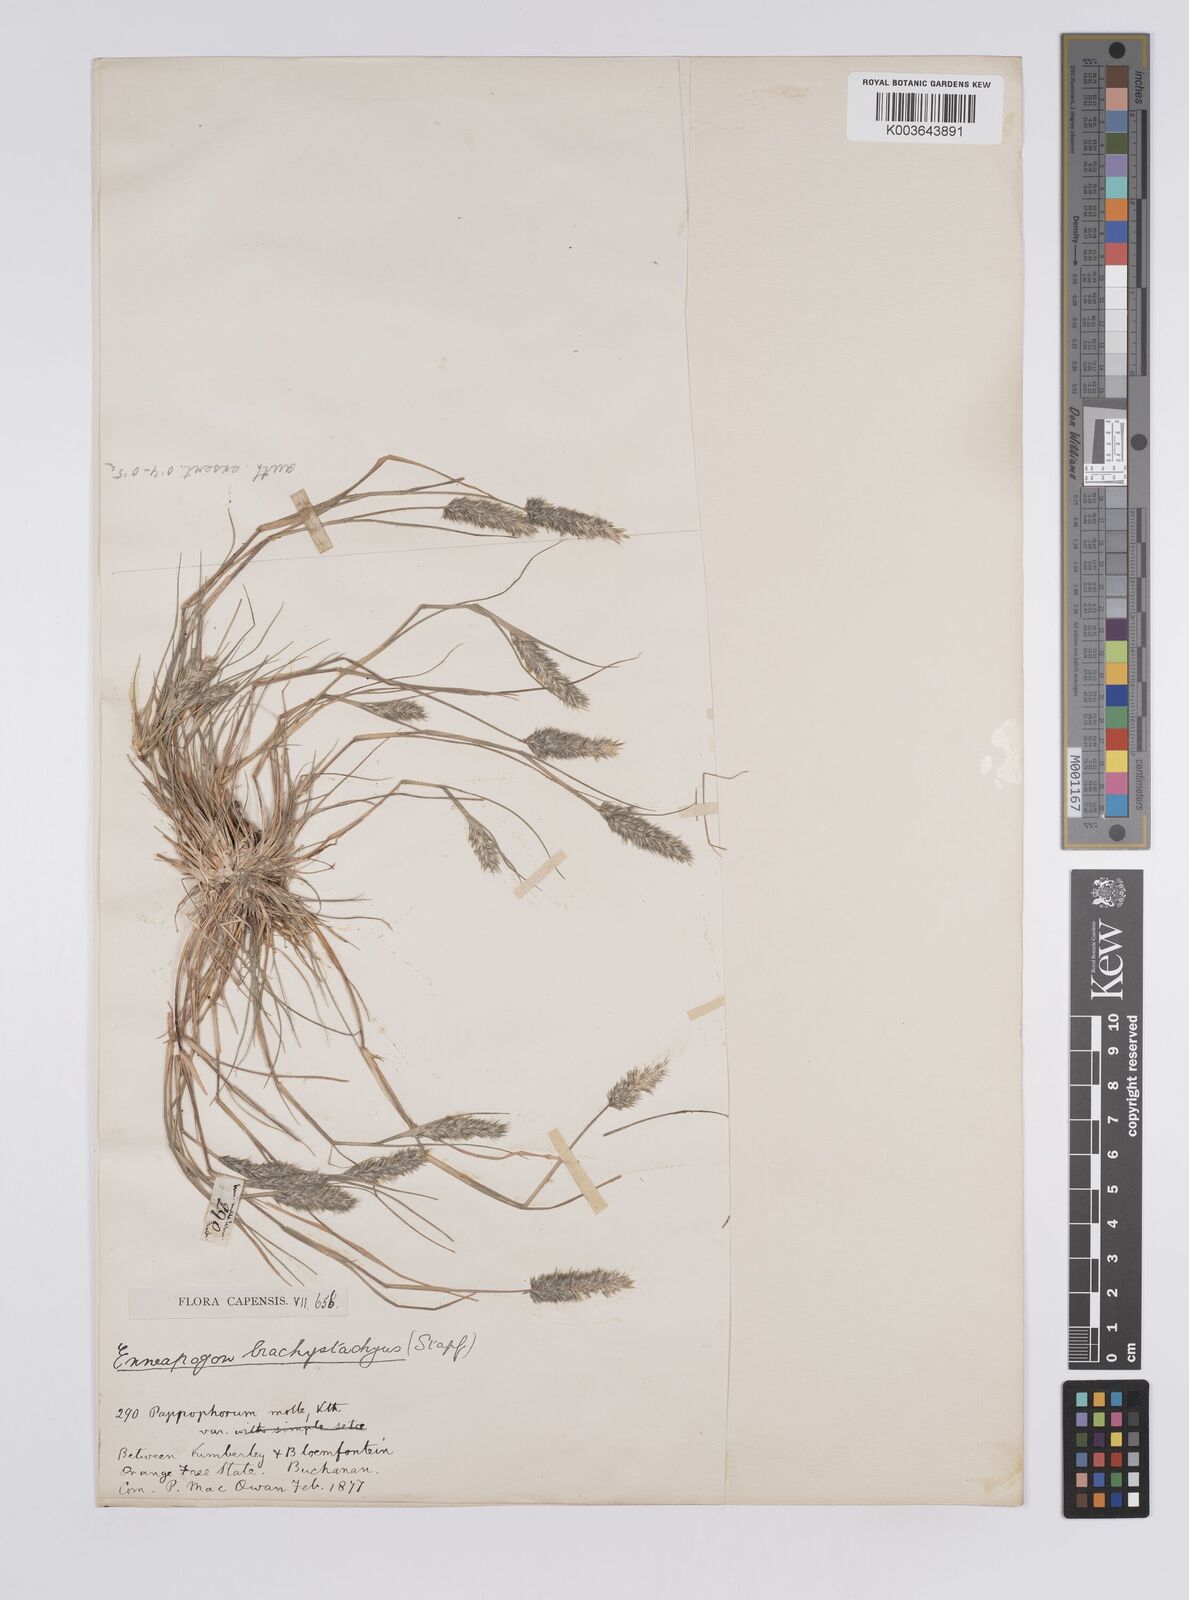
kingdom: Plantae
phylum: Tracheophyta
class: Liliopsida
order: Poales
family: Poaceae
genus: Enneapogon
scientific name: Enneapogon desvauxii
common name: Feather pappus grass
